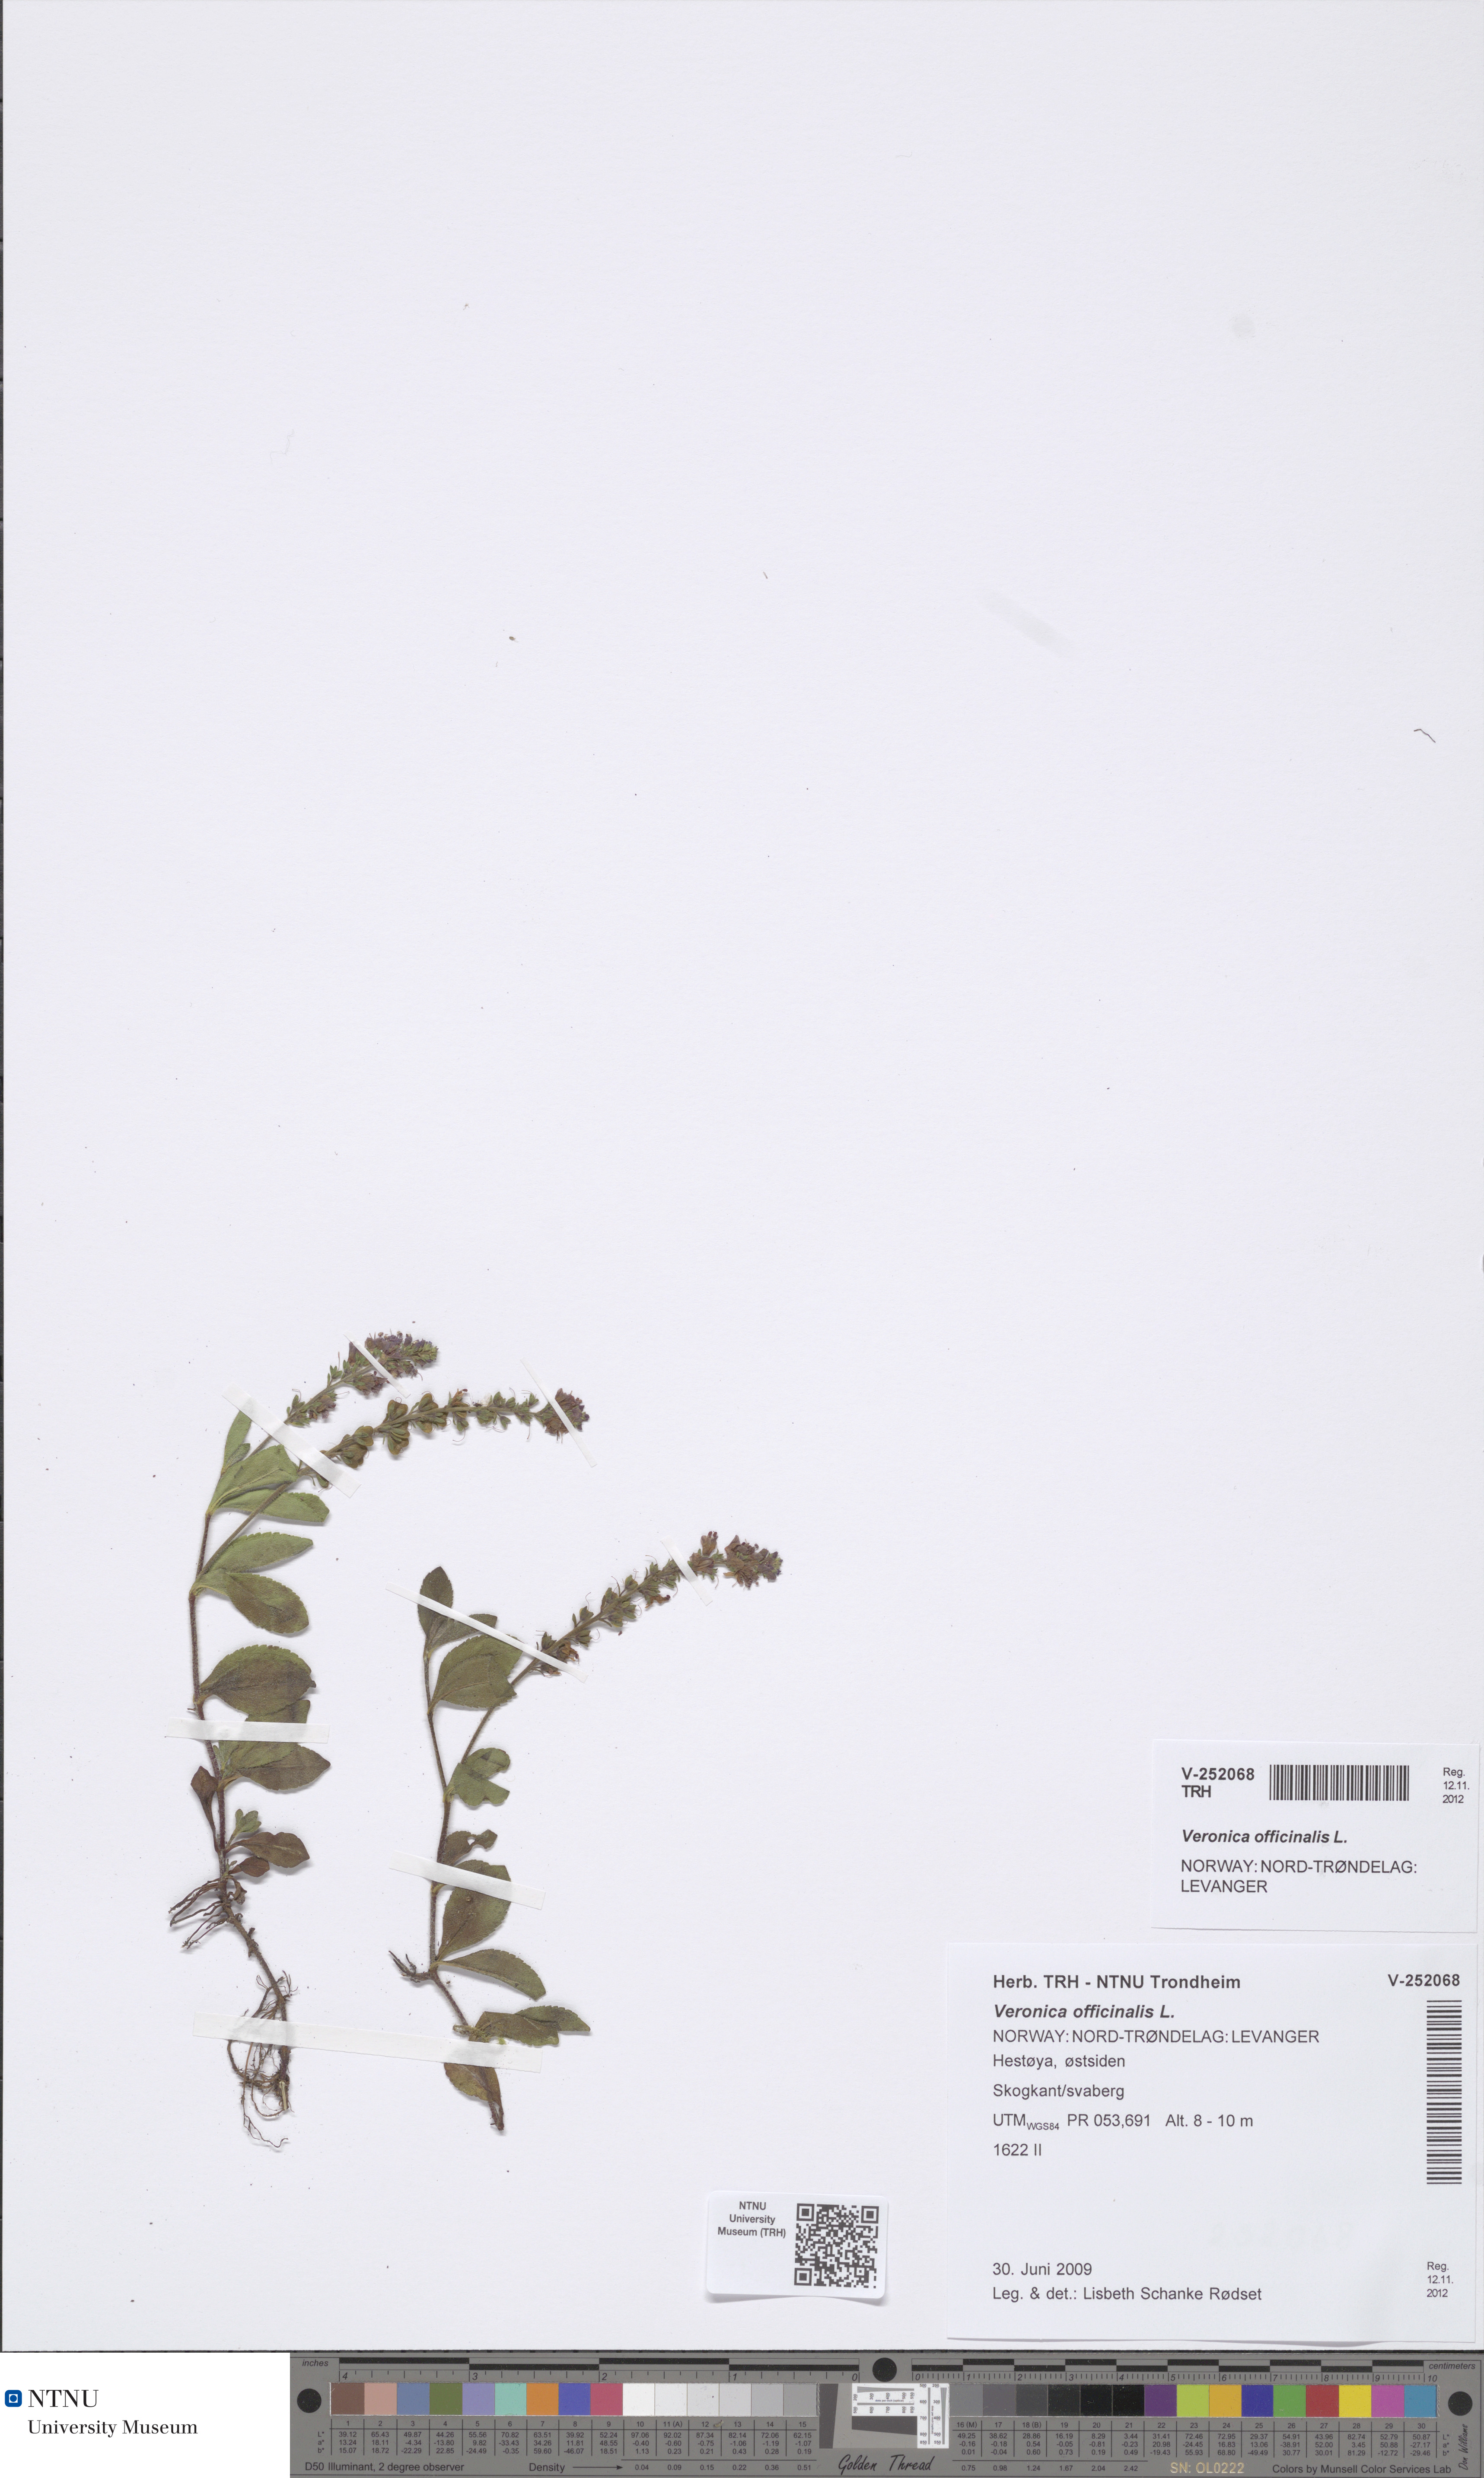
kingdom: Plantae
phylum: Tracheophyta
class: Magnoliopsida
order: Lamiales
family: Plantaginaceae
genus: Veronica
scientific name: Veronica officinalis
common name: Common speedwell
